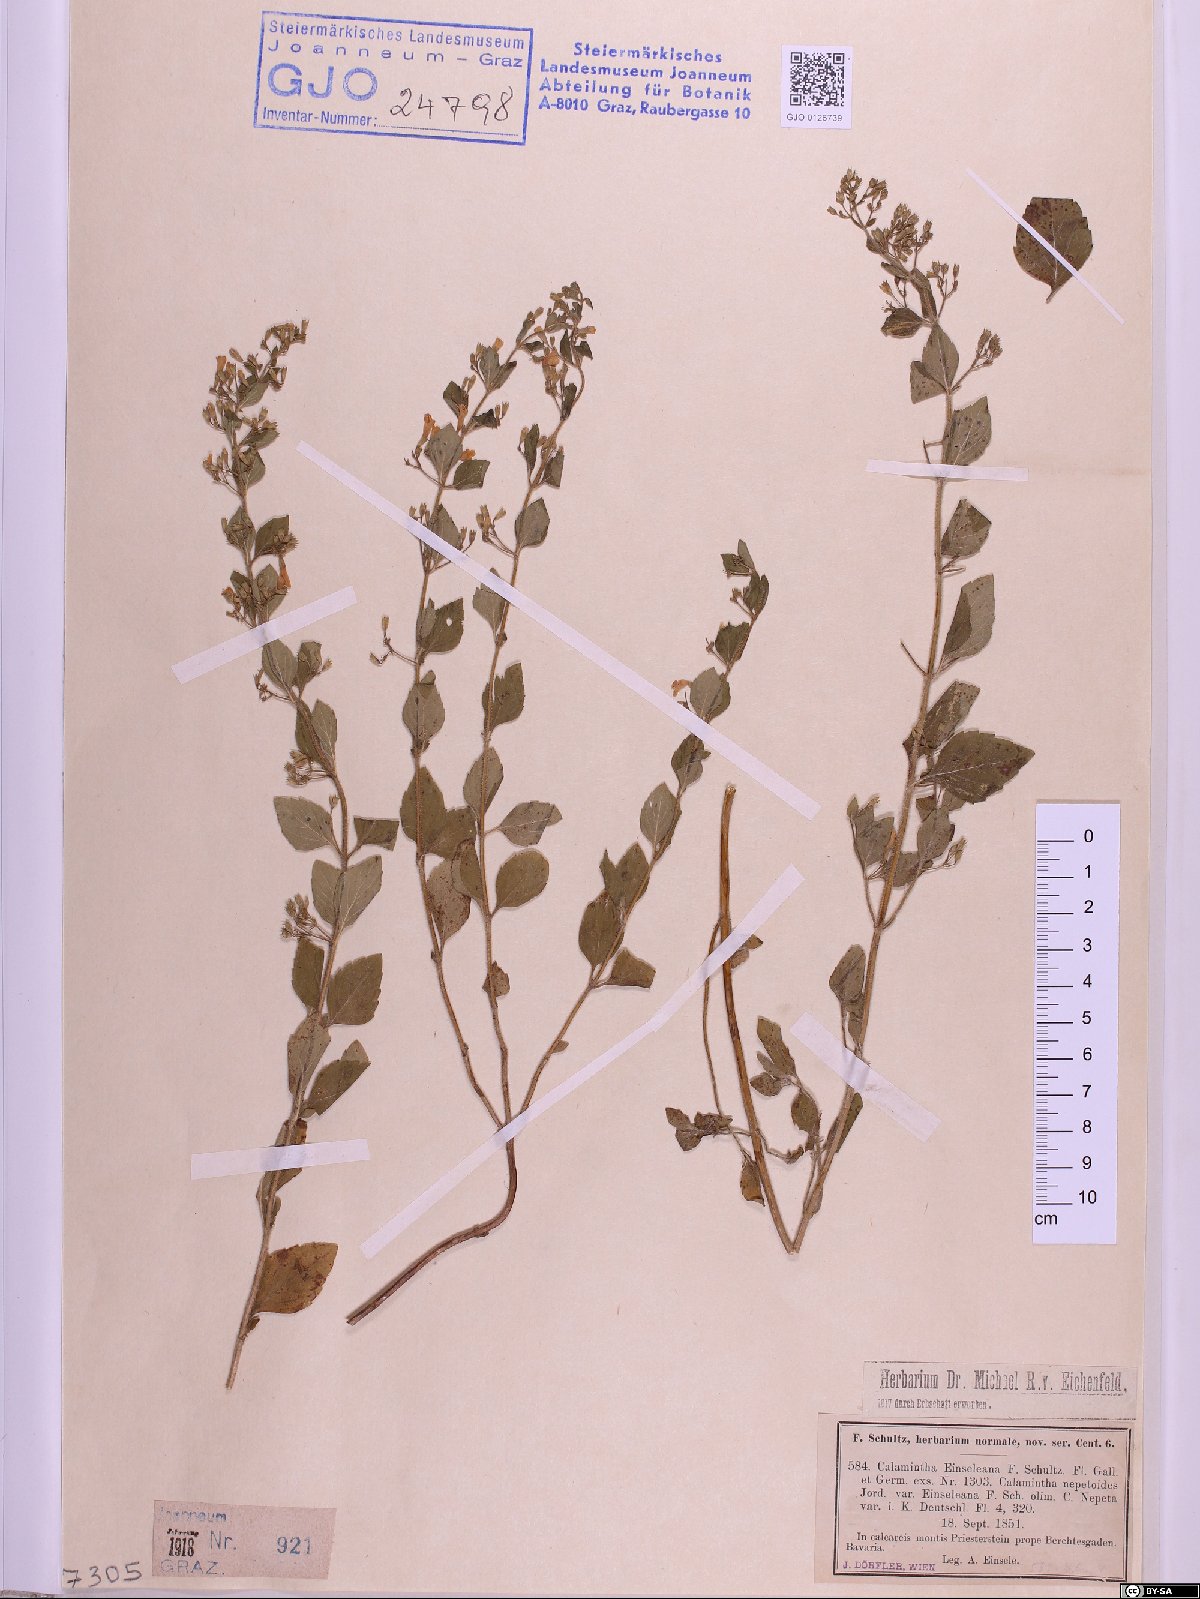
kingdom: Plantae
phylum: Tracheophyta
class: Magnoliopsida
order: Lamiales
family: Lamiaceae
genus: Clinopodium
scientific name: Clinopodium foliolosum
